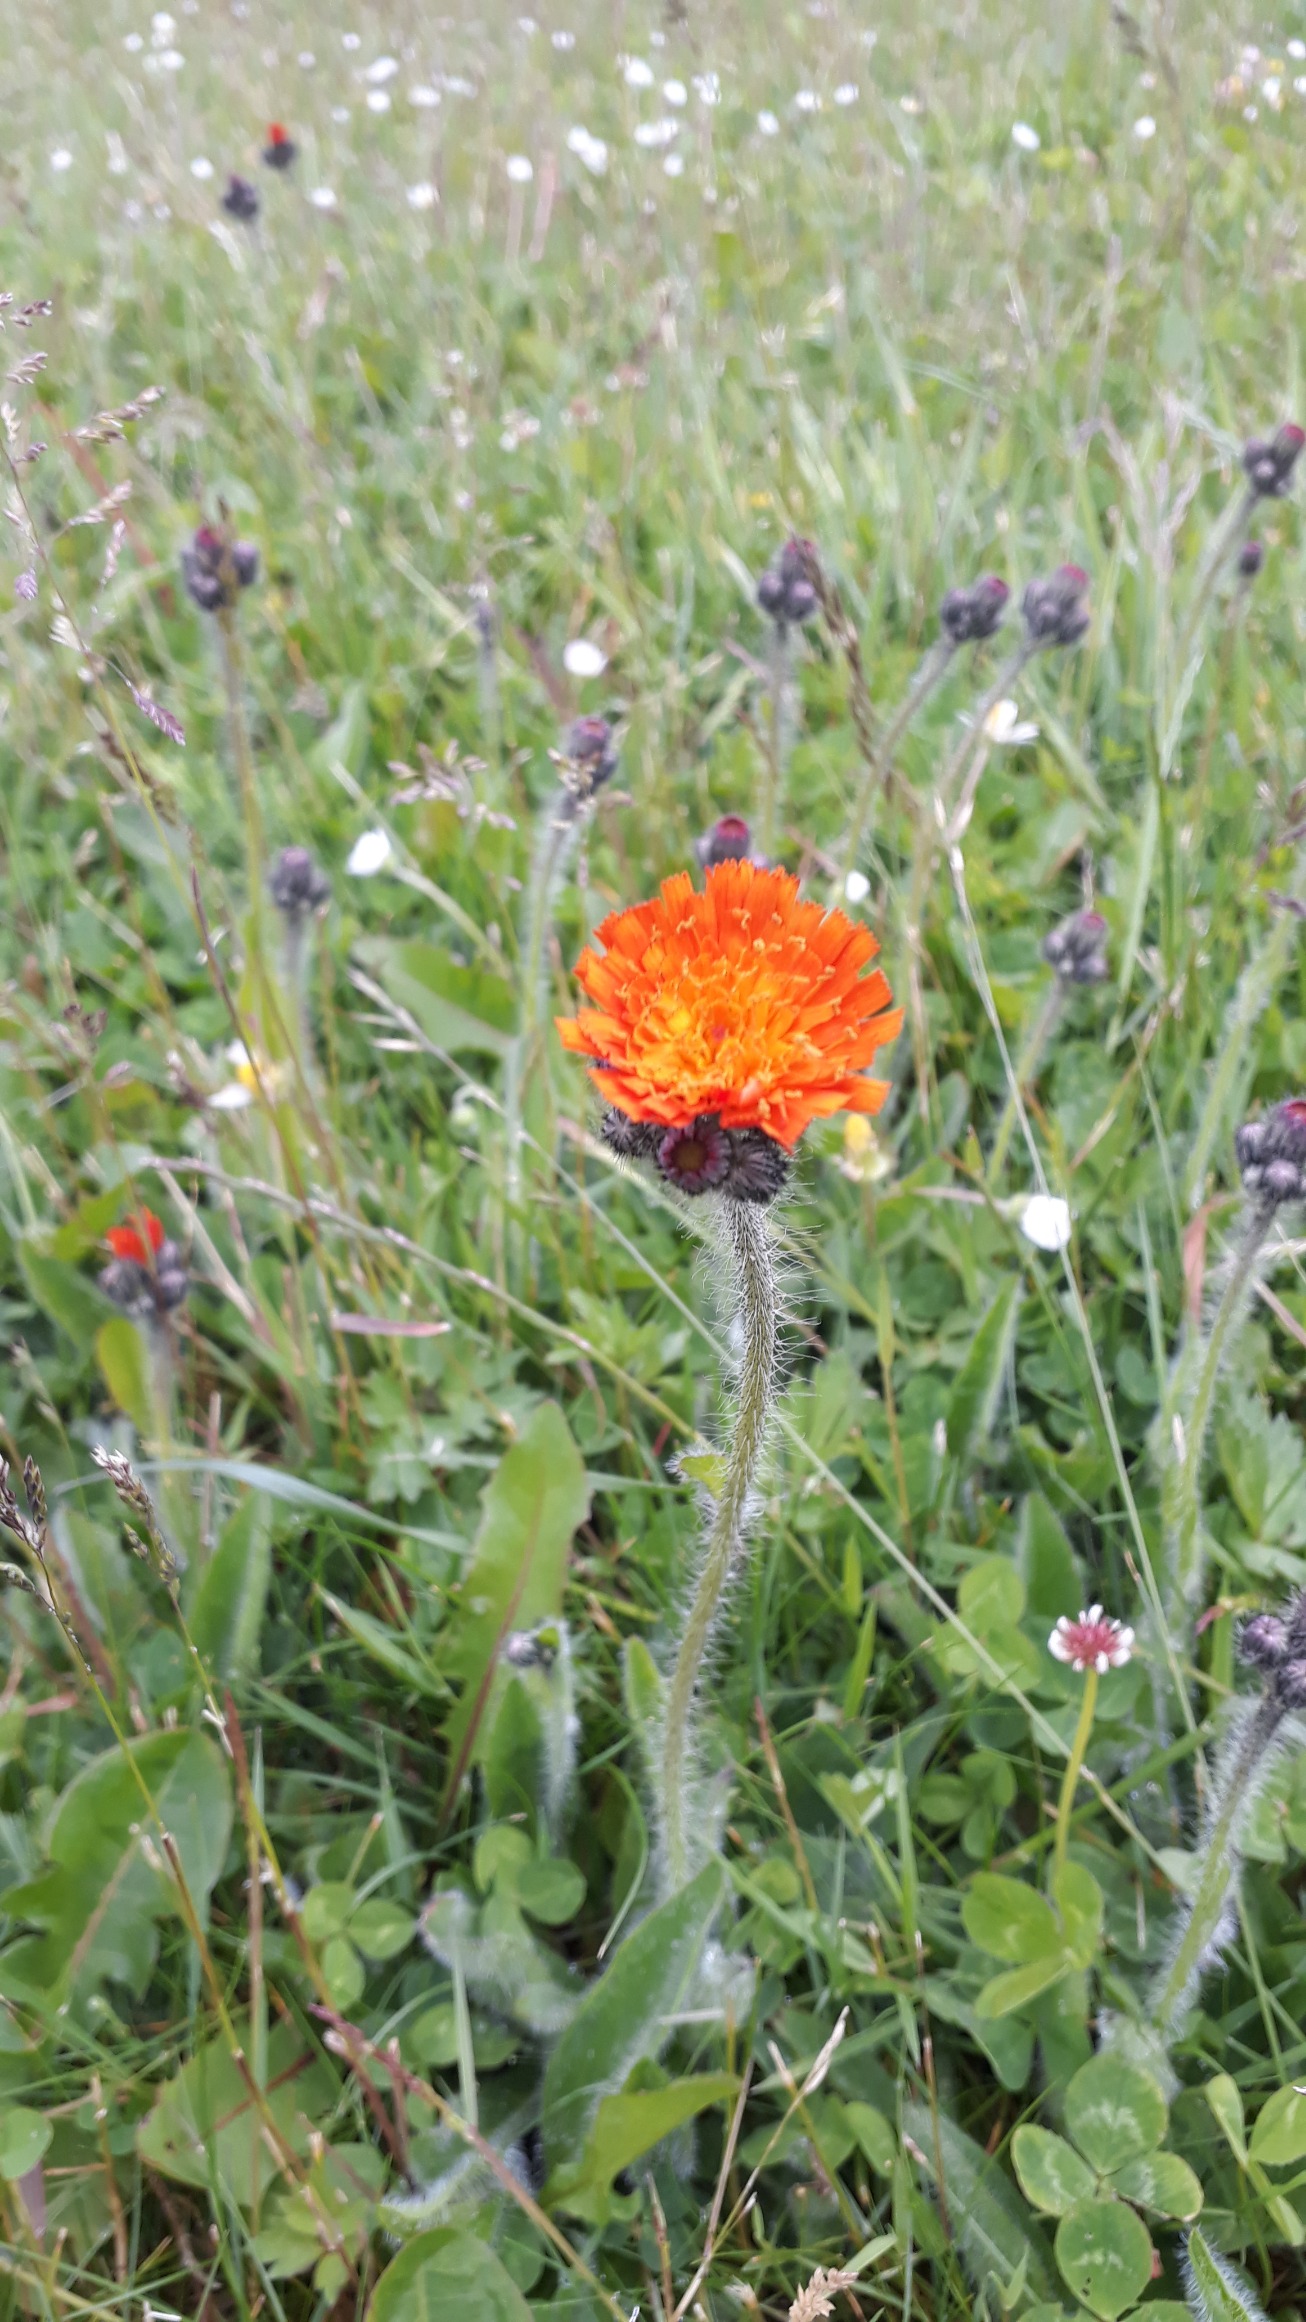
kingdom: Plantae
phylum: Tracheophyta
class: Magnoliopsida
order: Asterales
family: Asteraceae
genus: Pilosella
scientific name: Pilosella aurantiaca
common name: Pomerans-høgeurt
